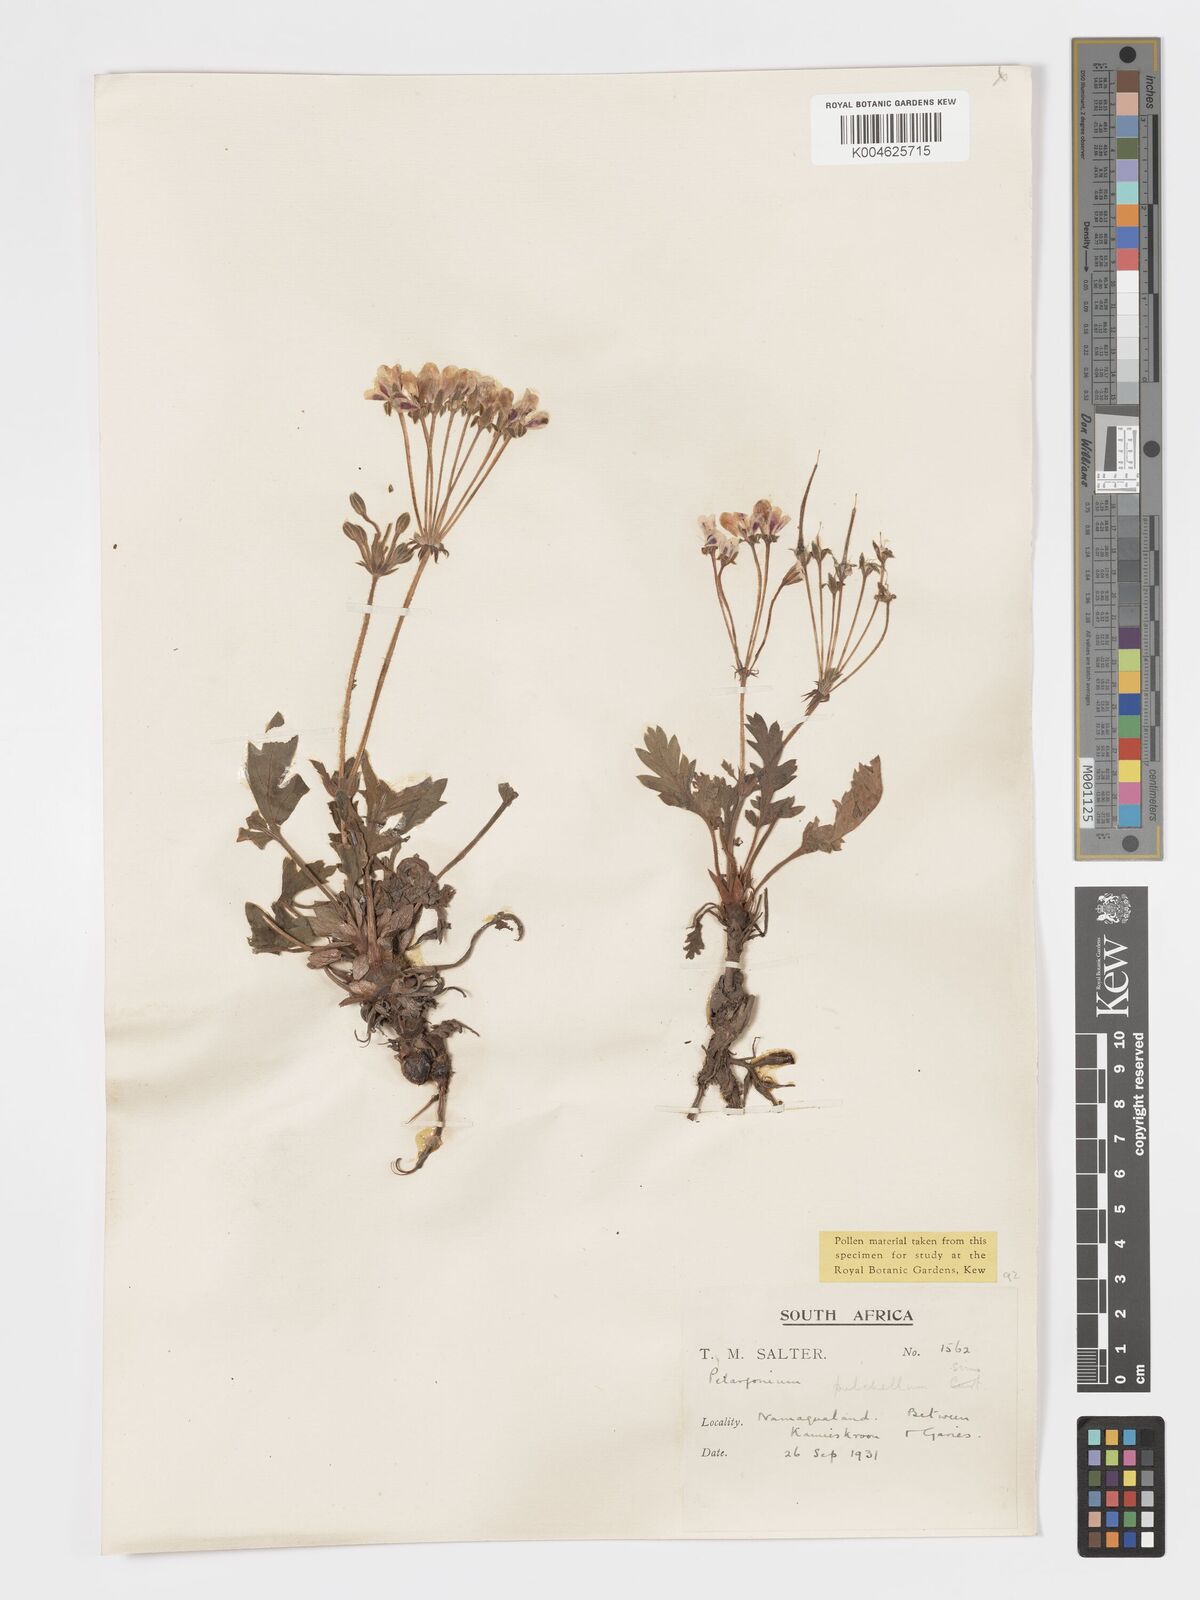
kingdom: Plantae
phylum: Tracheophyta
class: Magnoliopsida
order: Geraniales
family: Geraniaceae
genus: Pelargonium
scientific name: Pelargonium
